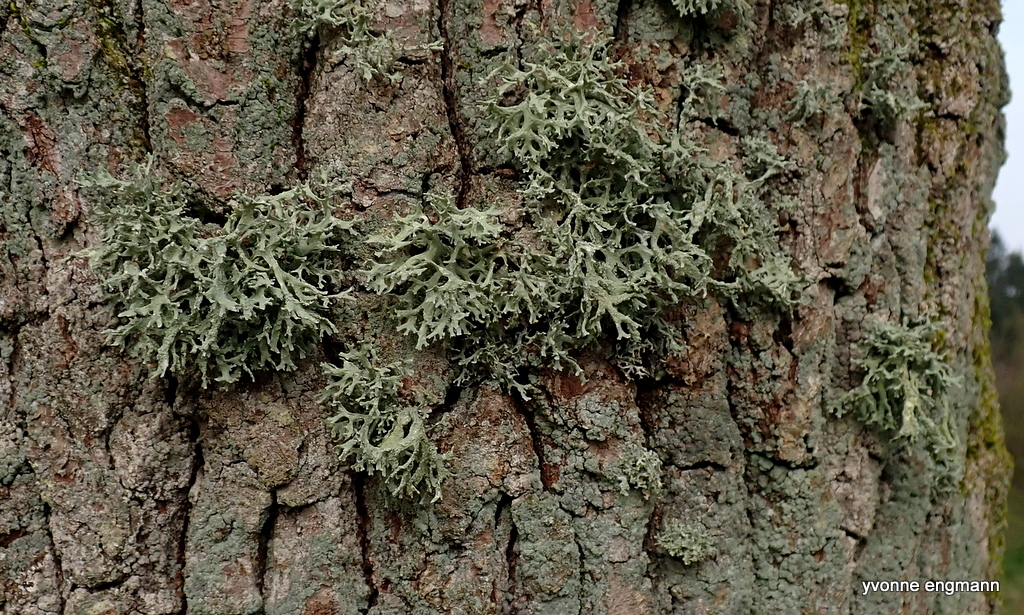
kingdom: Fungi
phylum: Ascomycota
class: Lecanoromycetes
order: Lecanorales
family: Parmeliaceae
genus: Evernia
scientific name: Evernia prunastri
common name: almindelig slåenlav
